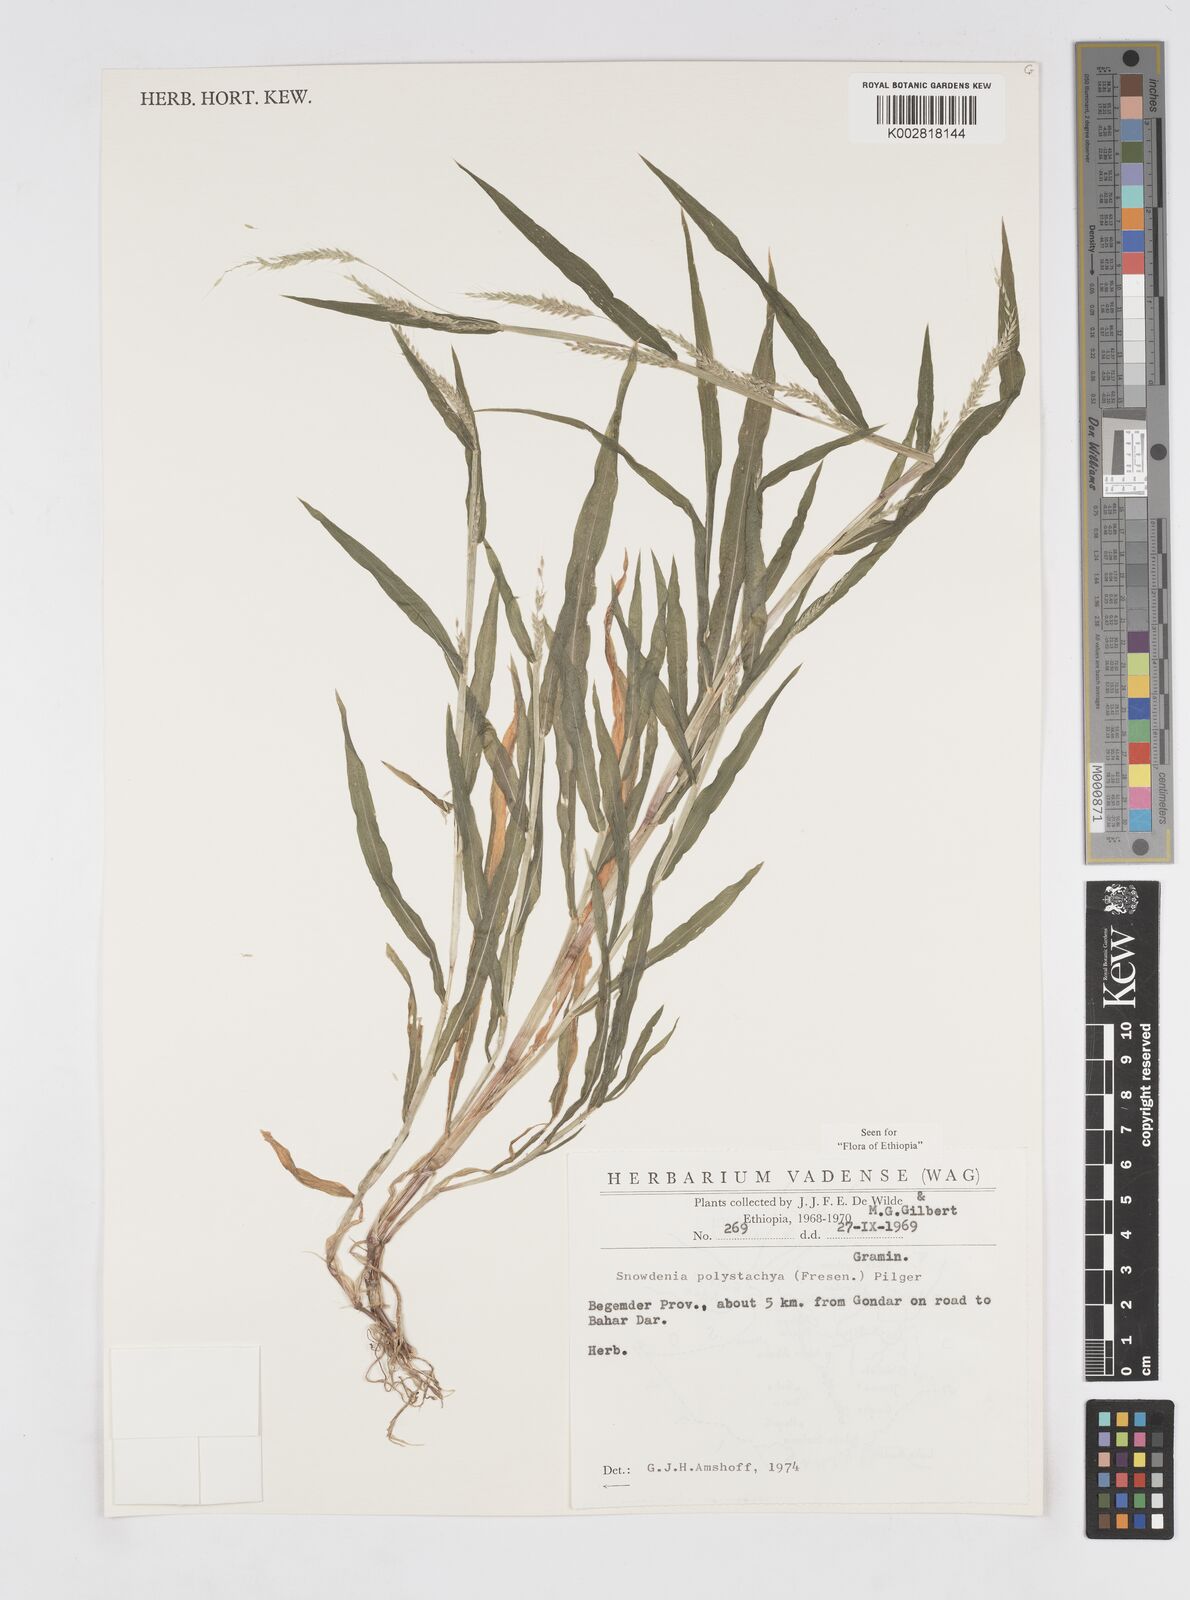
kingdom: Plantae
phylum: Tracheophyta
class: Liliopsida
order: Poales
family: Poaceae
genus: Snowdenia
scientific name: Snowdenia polystachya
